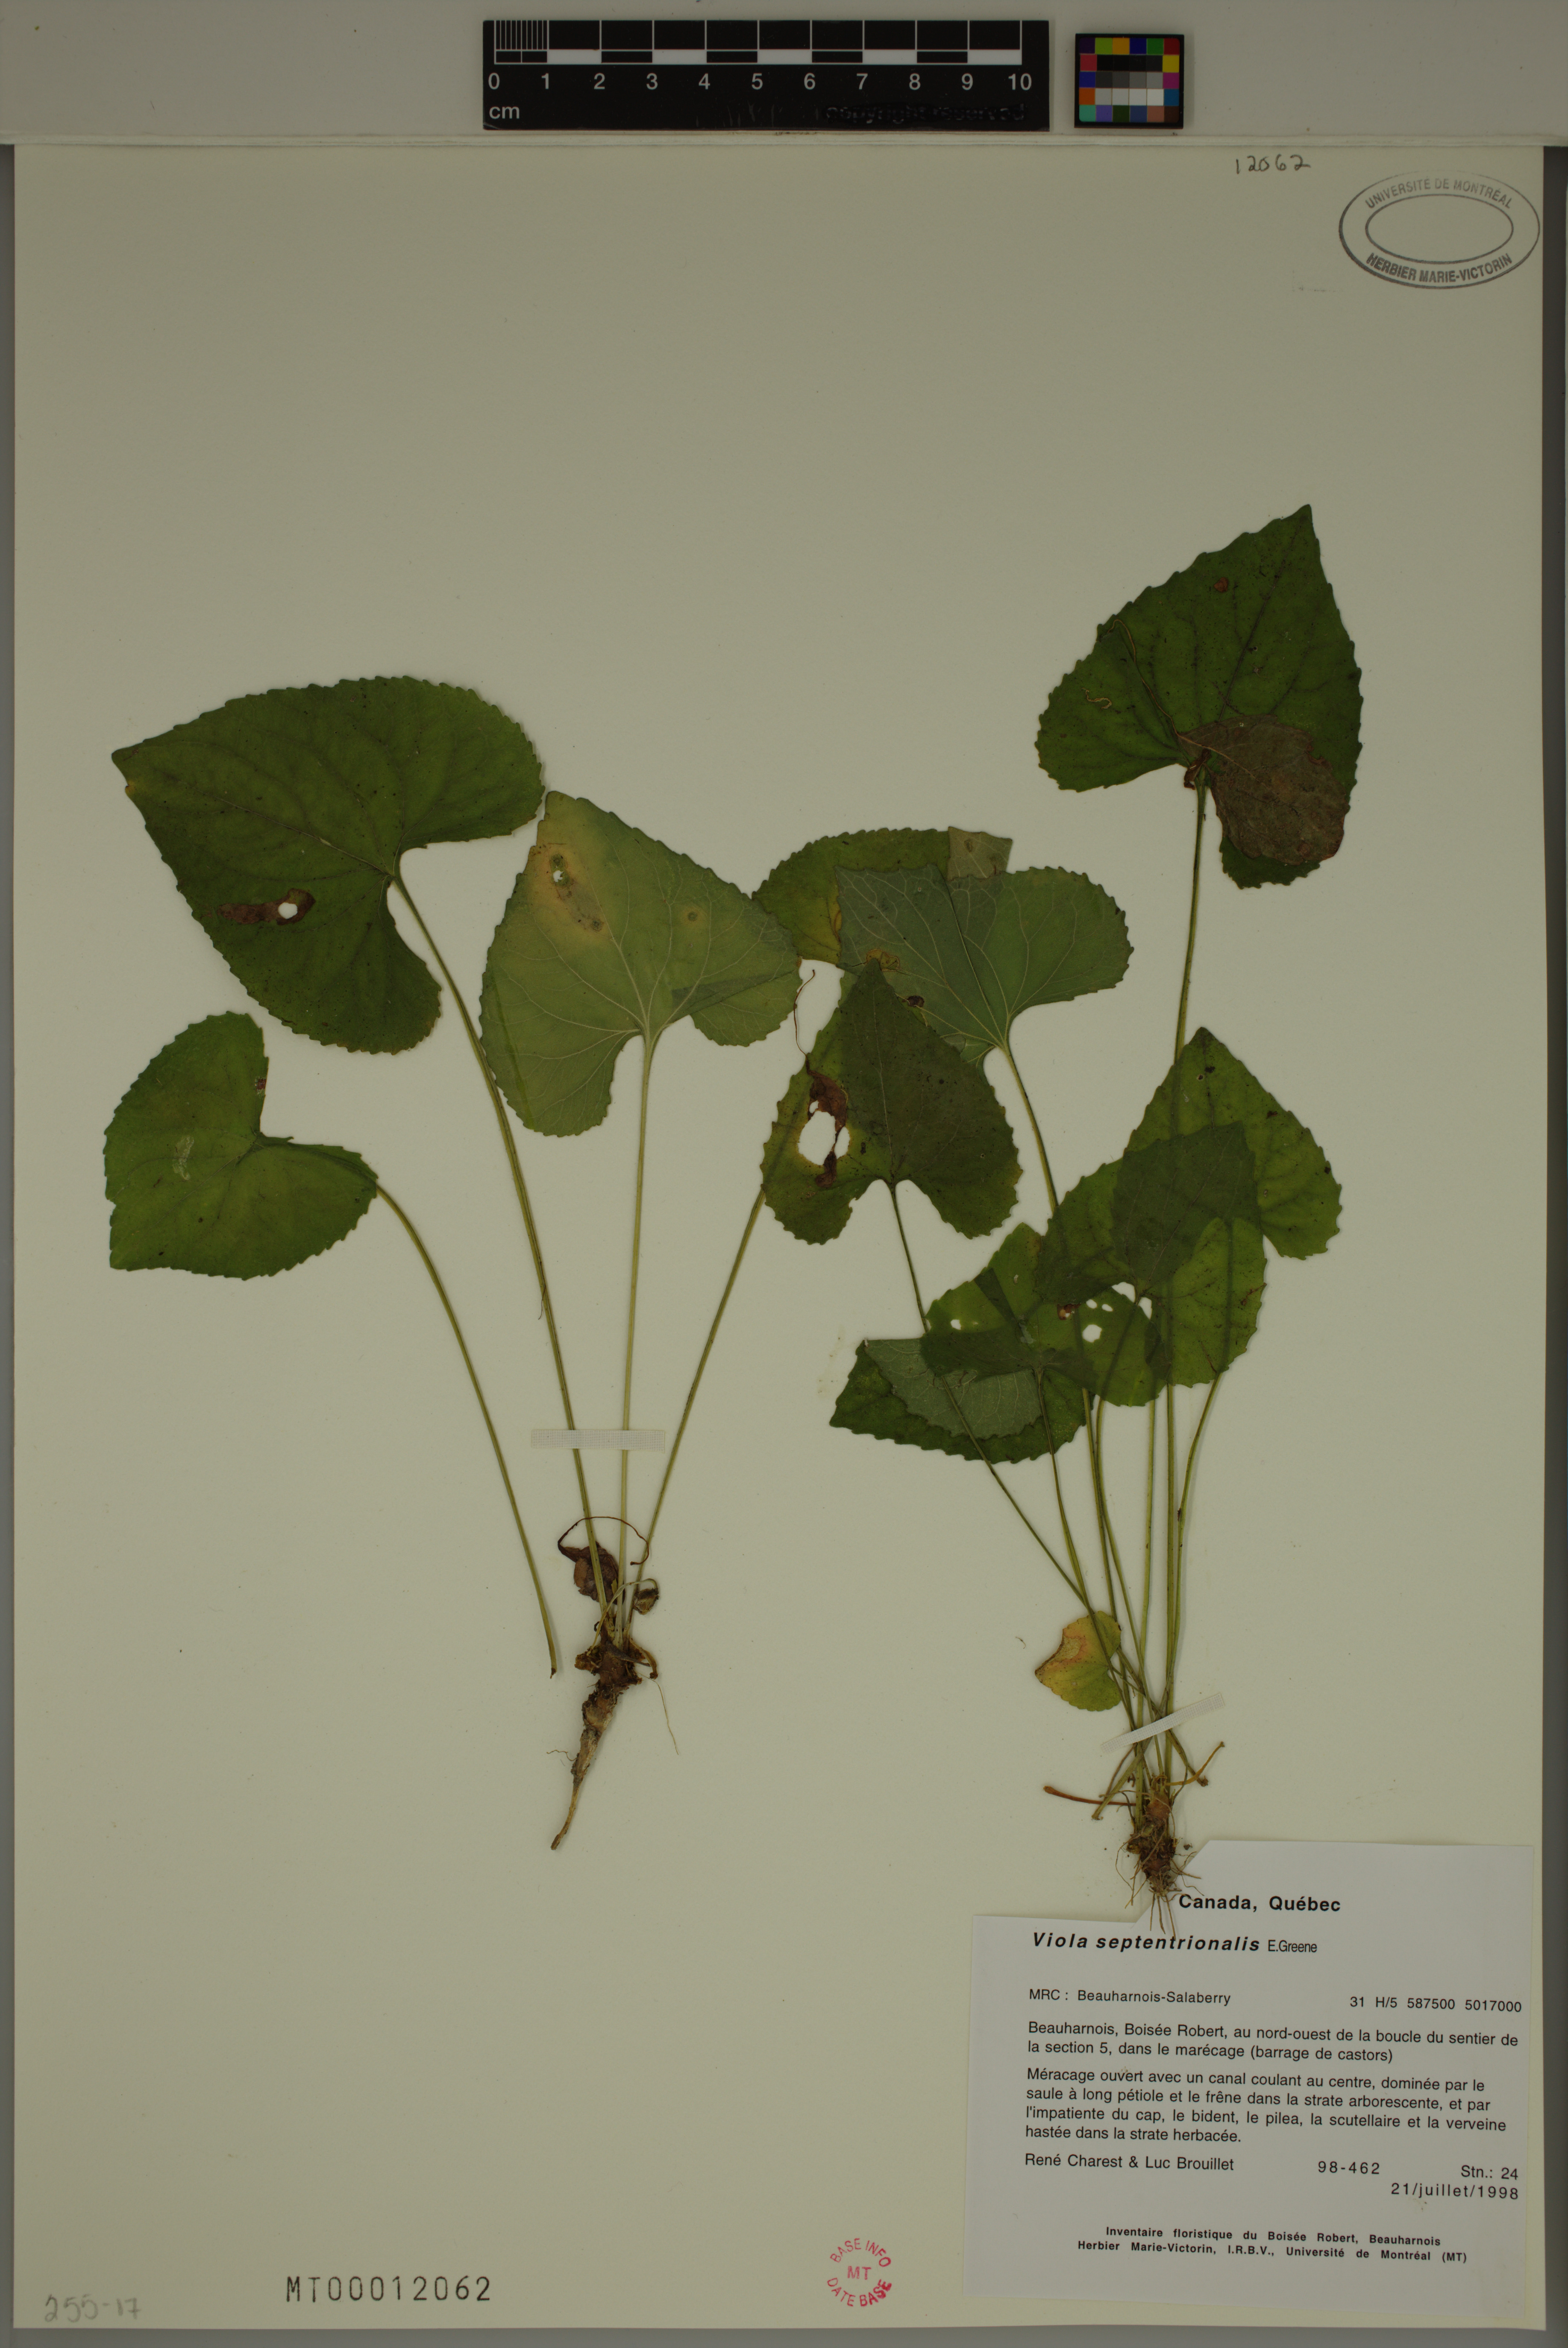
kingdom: Plantae
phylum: Tracheophyta
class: Magnoliopsida
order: Malpighiales
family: Violaceae
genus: Viola
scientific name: Viola sororia
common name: Dooryard violet
